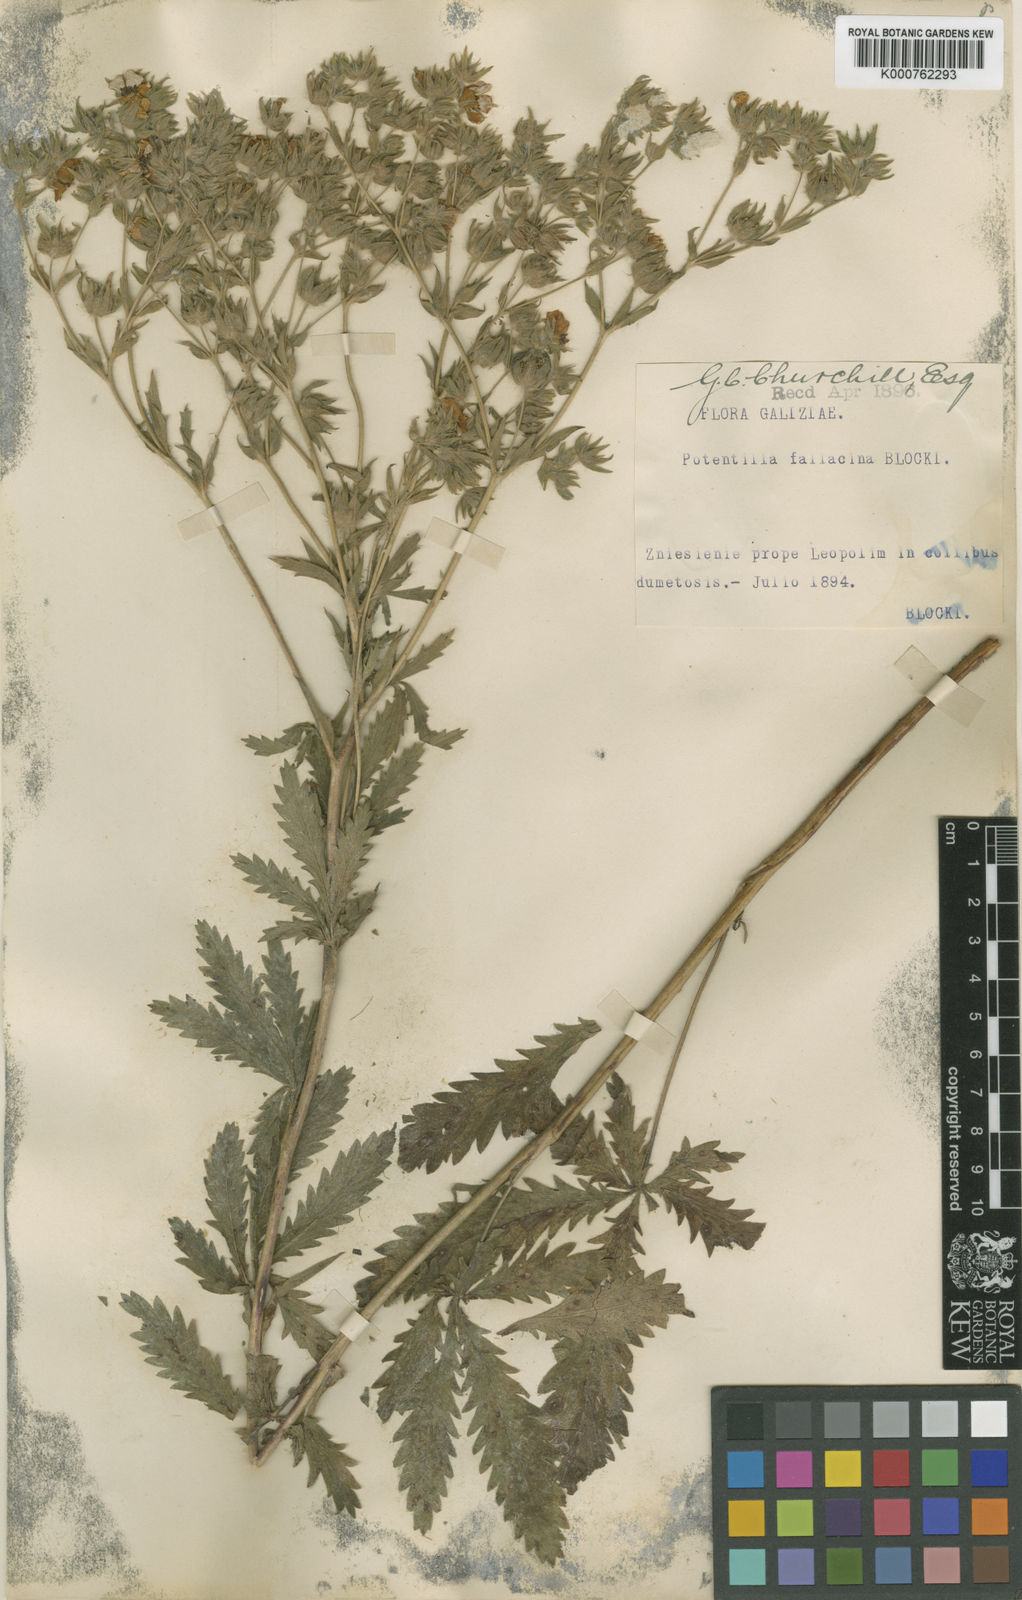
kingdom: Plantae
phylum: Tracheophyta
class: Magnoliopsida
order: Rosales
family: Rosaceae
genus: Potentilla
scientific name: Potentilla recta
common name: Sulphur cinquefoil
